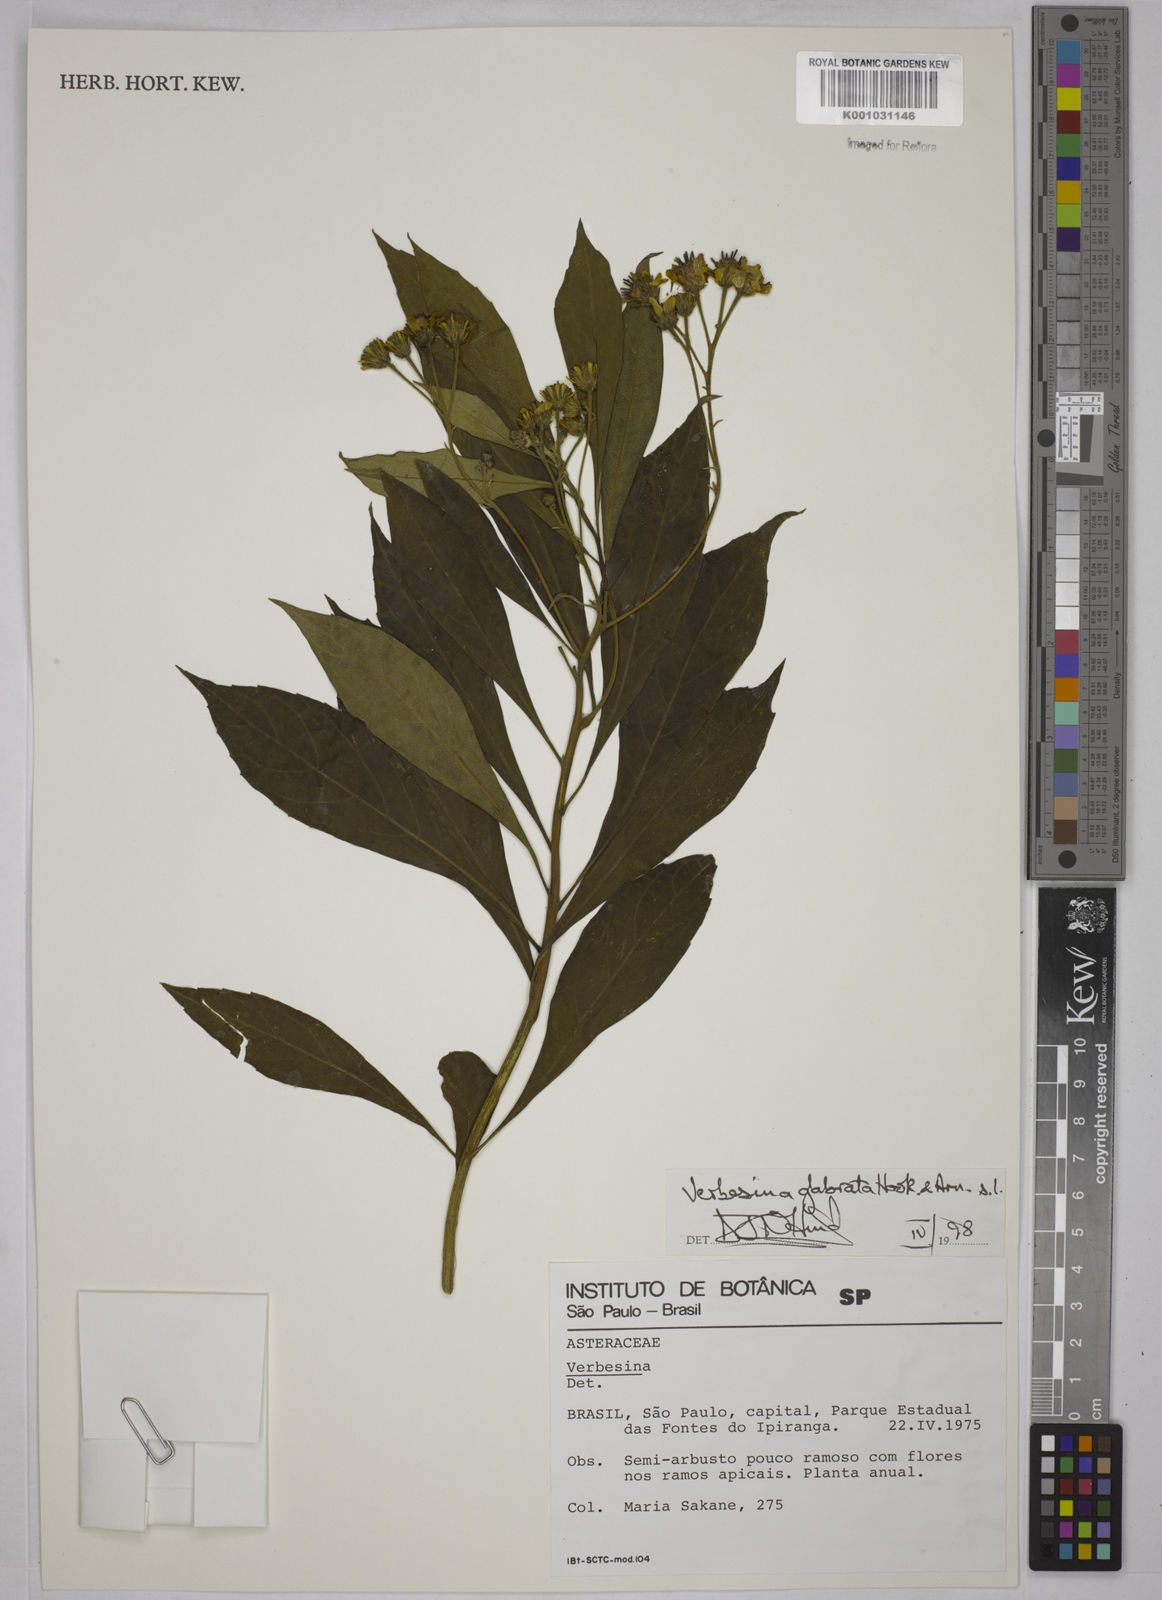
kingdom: Plantae
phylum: Tracheophyta
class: Magnoliopsida
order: Asterales
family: Asteraceae
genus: Verbesina
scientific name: Verbesina glabrata
